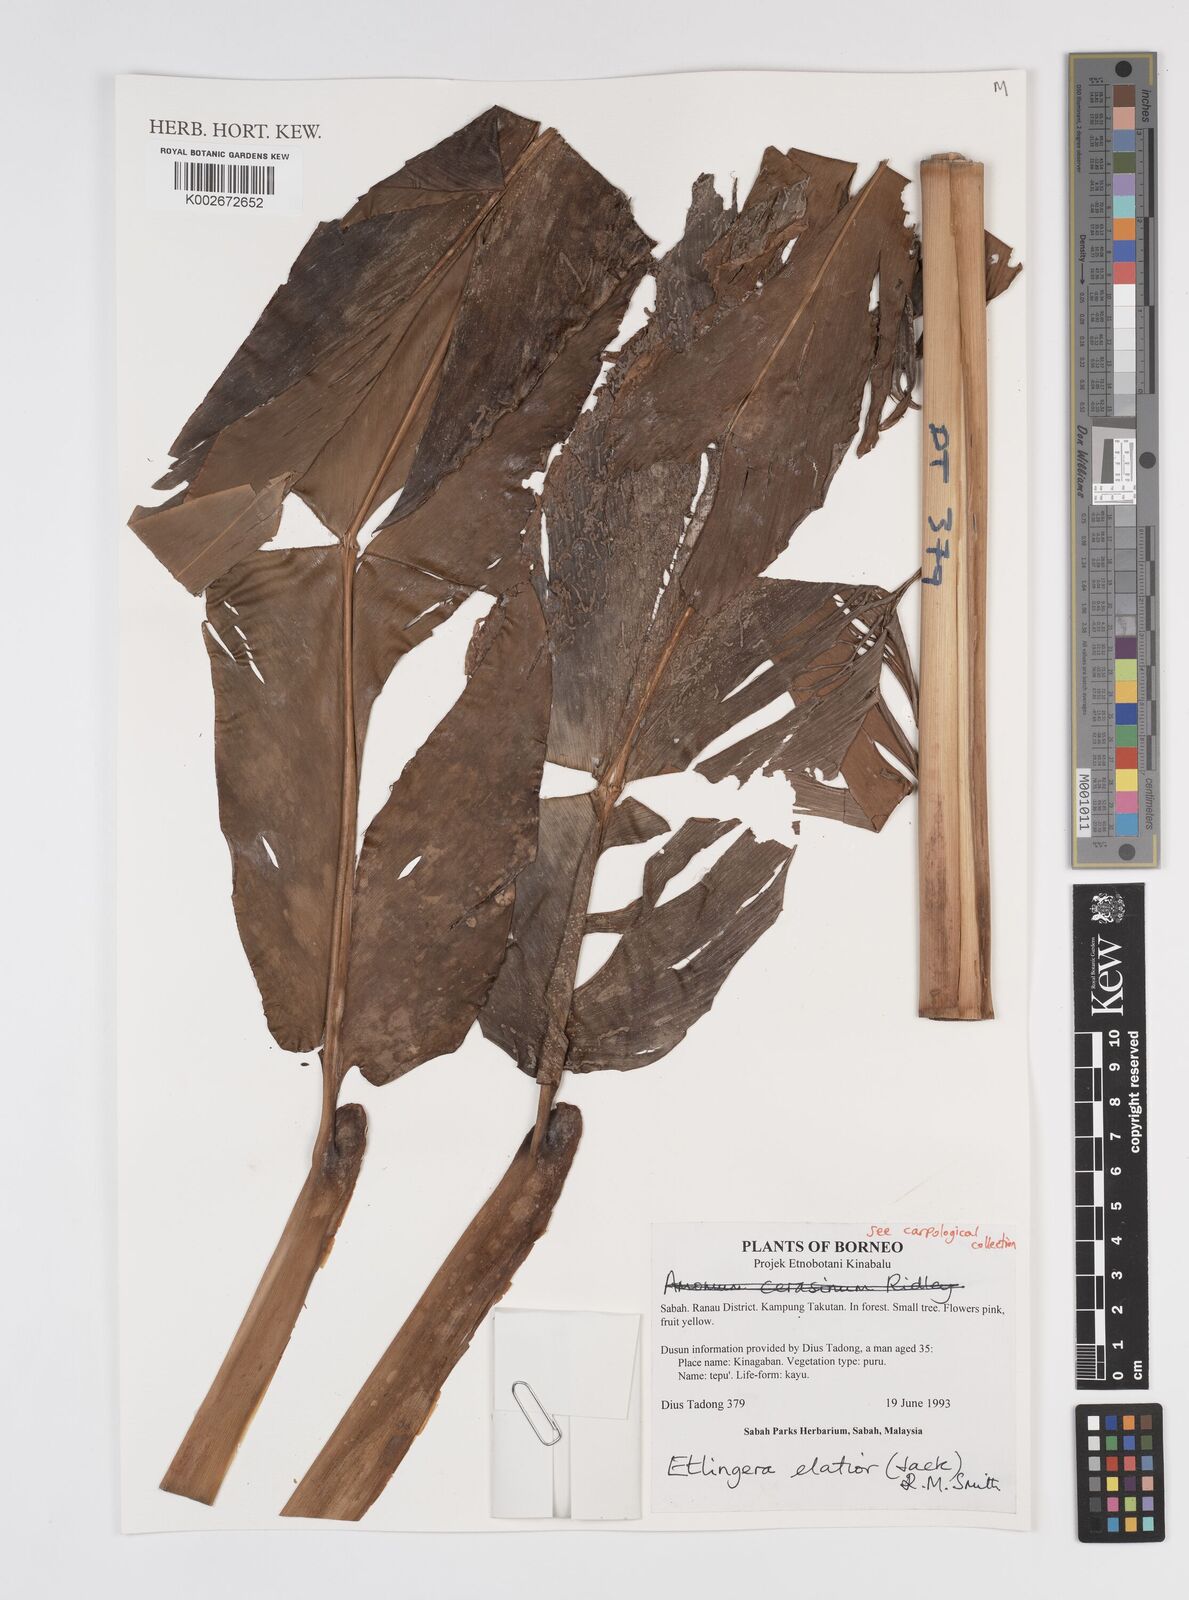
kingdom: Plantae
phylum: Tracheophyta
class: Liliopsida
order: Zingiberales
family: Zingiberaceae
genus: Etlingera
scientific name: Etlingera elatior
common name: Philippine waxflower
